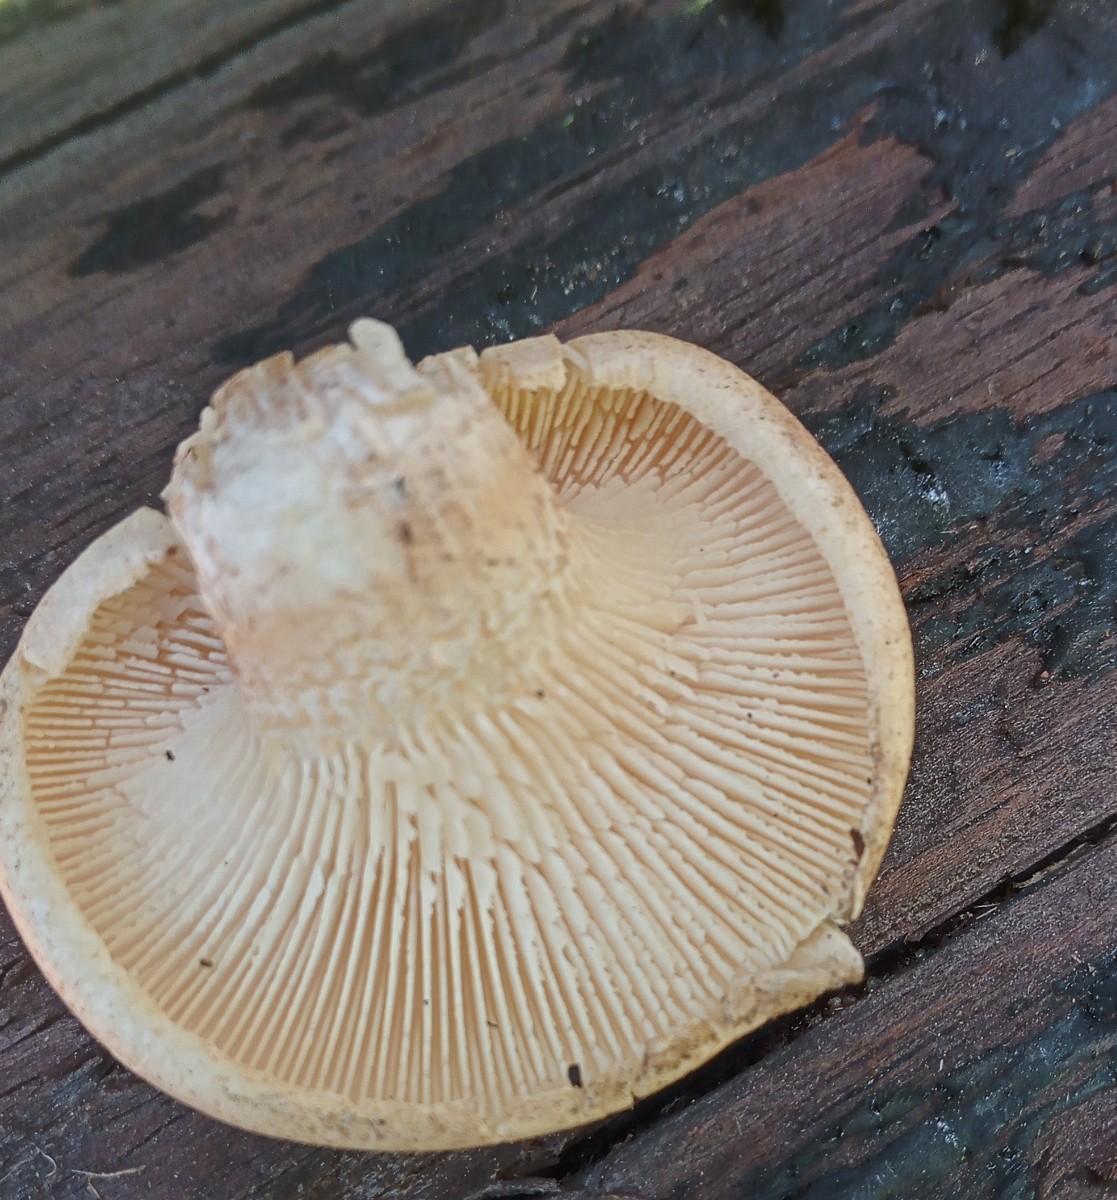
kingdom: Fungi
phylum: Basidiomycota
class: Agaricomycetes
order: Gloeophyllales
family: Gloeophyllaceae
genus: Neolentinus
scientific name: Neolentinus lepideus
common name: skællet sejhat
